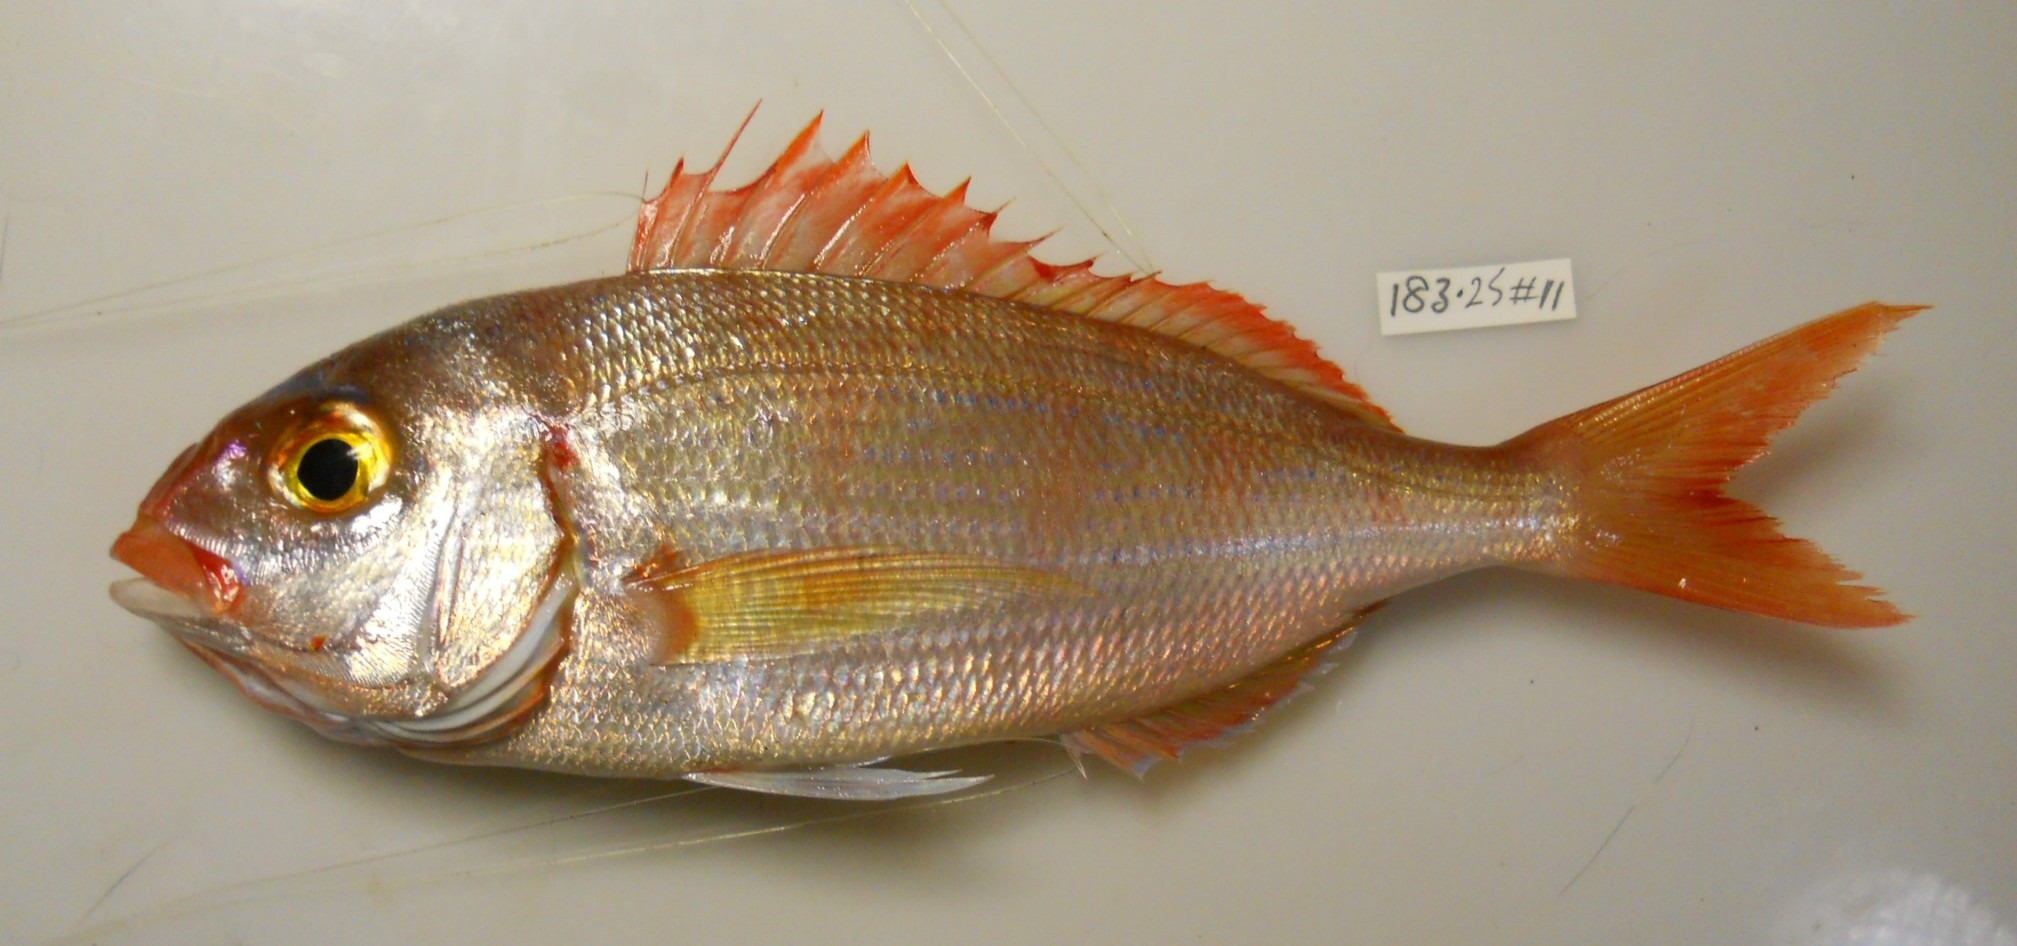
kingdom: Animalia
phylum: Chordata
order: Perciformes
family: Sparidae
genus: Pagellus
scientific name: Pagellus natalensis
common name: Natal pandora
